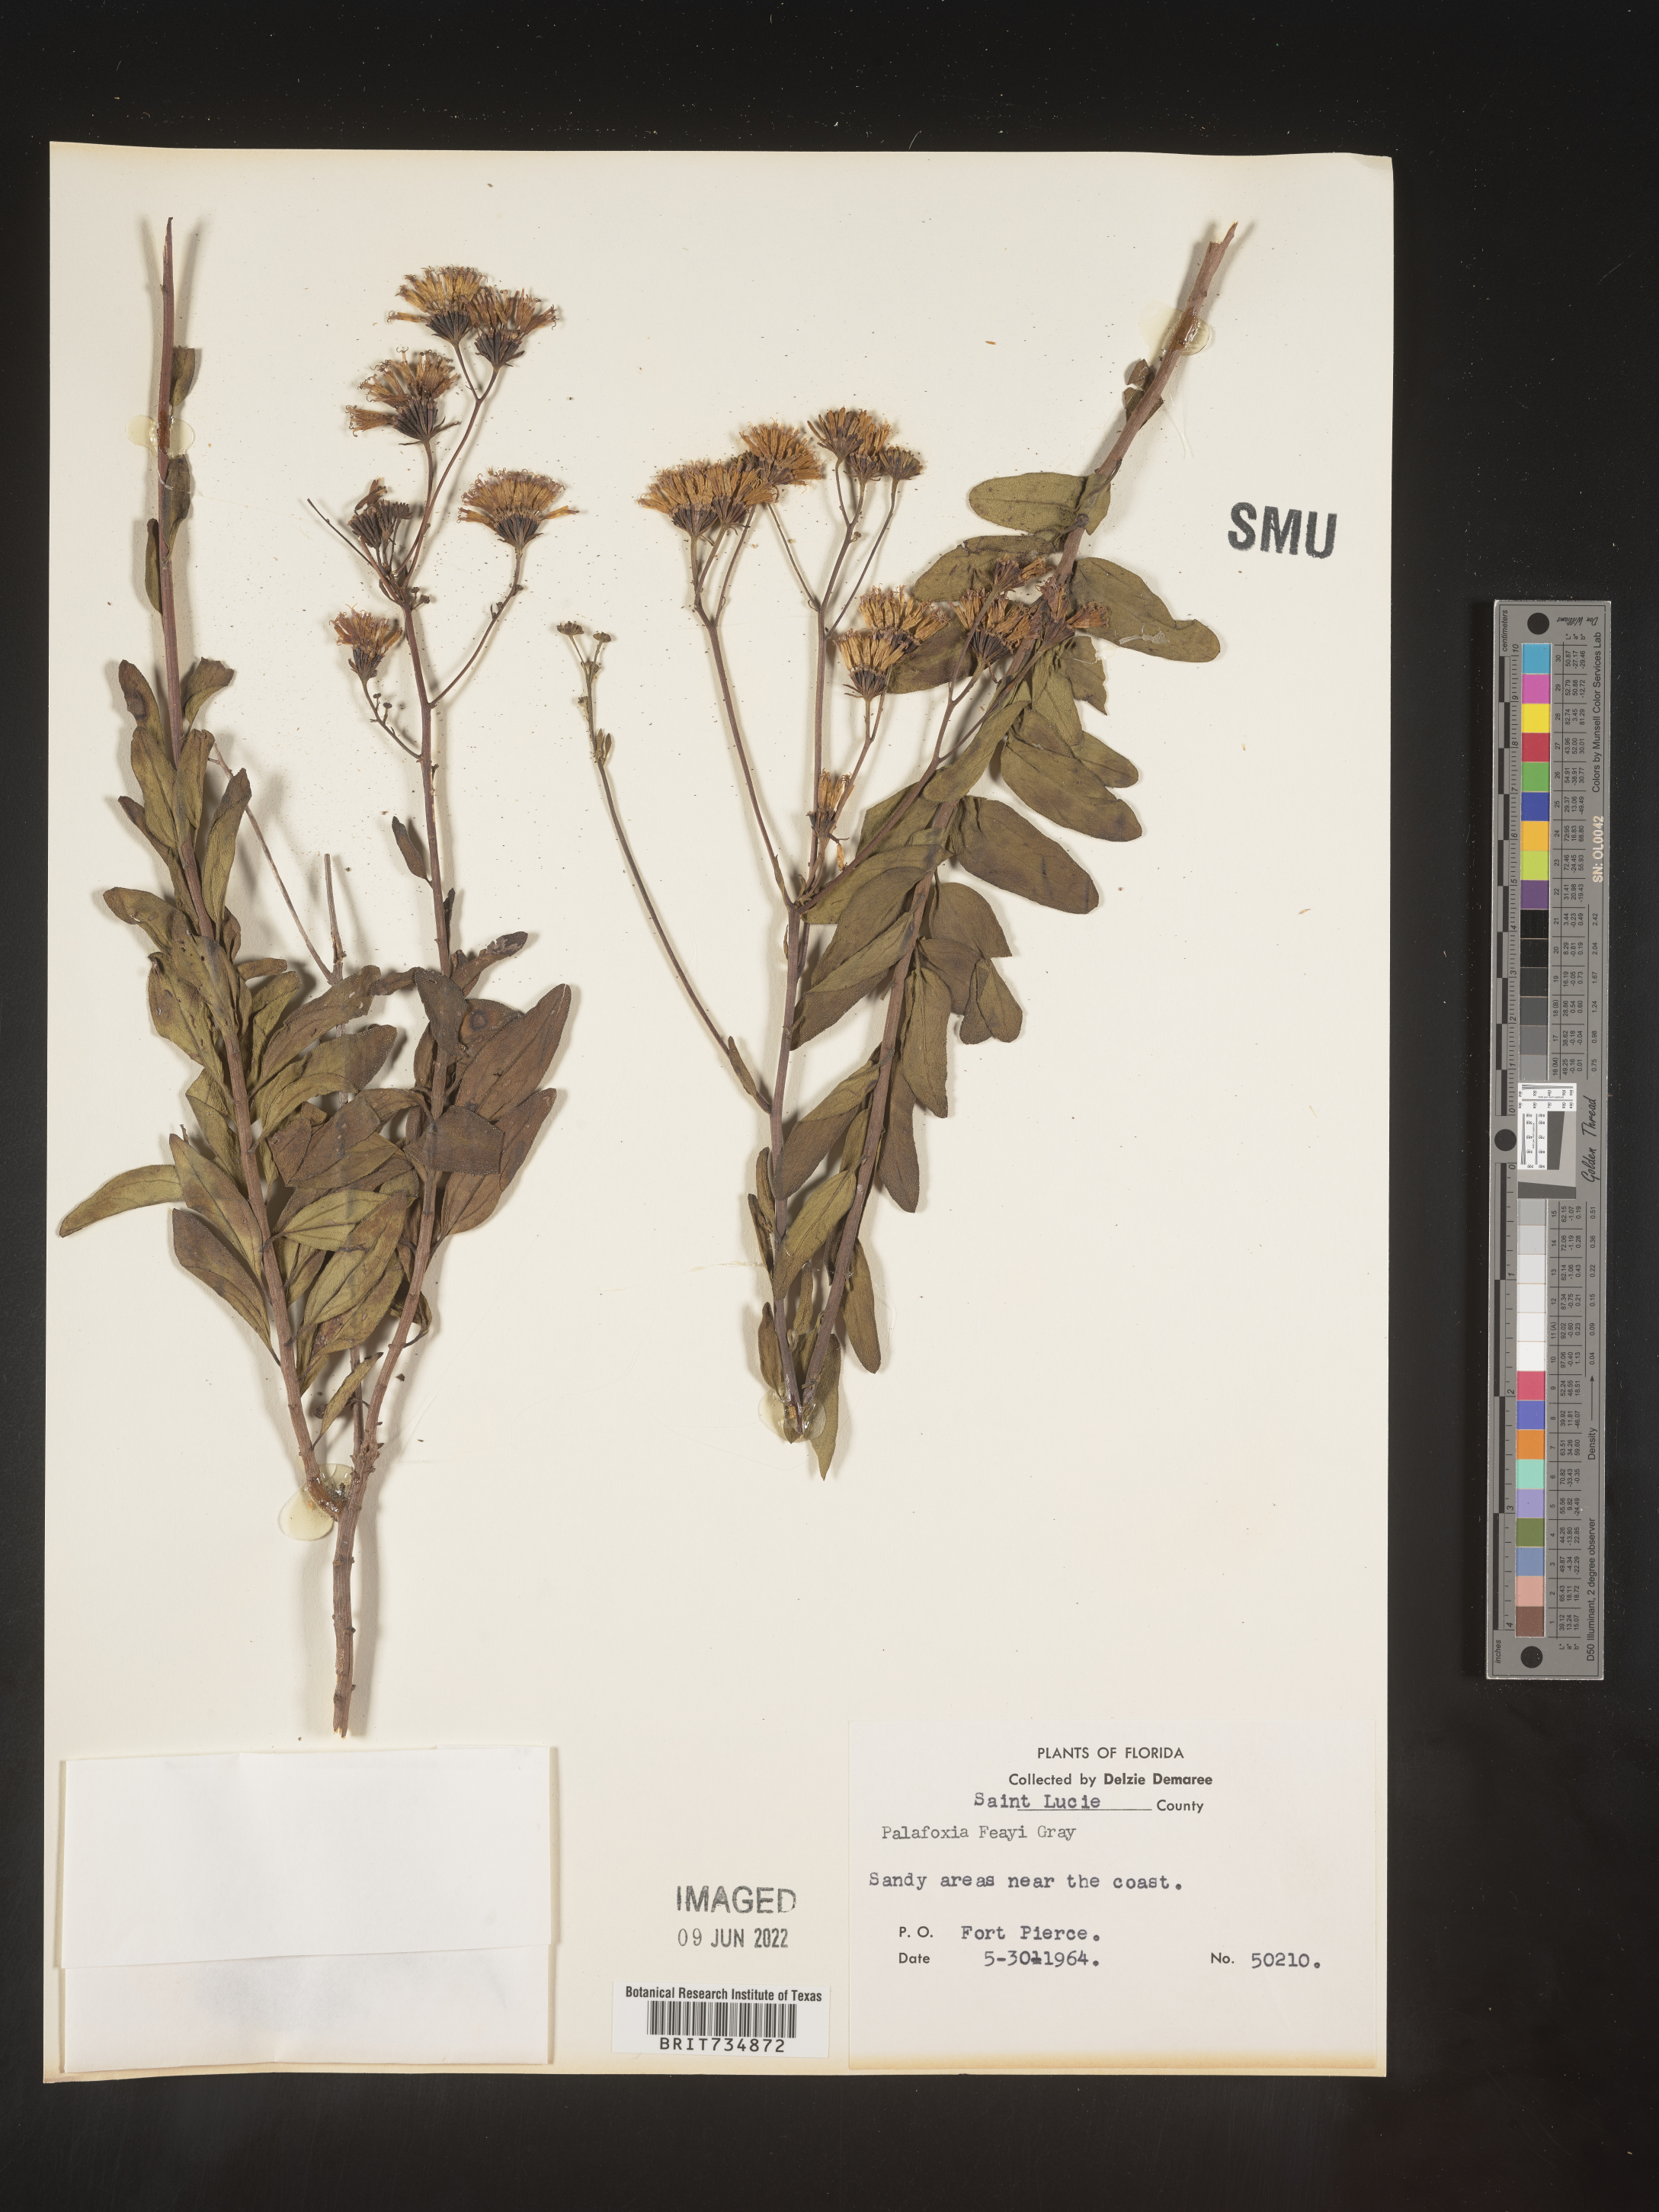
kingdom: Plantae
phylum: Tracheophyta
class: Magnoliopsida
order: Asterales
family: Asteraceae
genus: Palafoxia
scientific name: Palafoxia feayi
